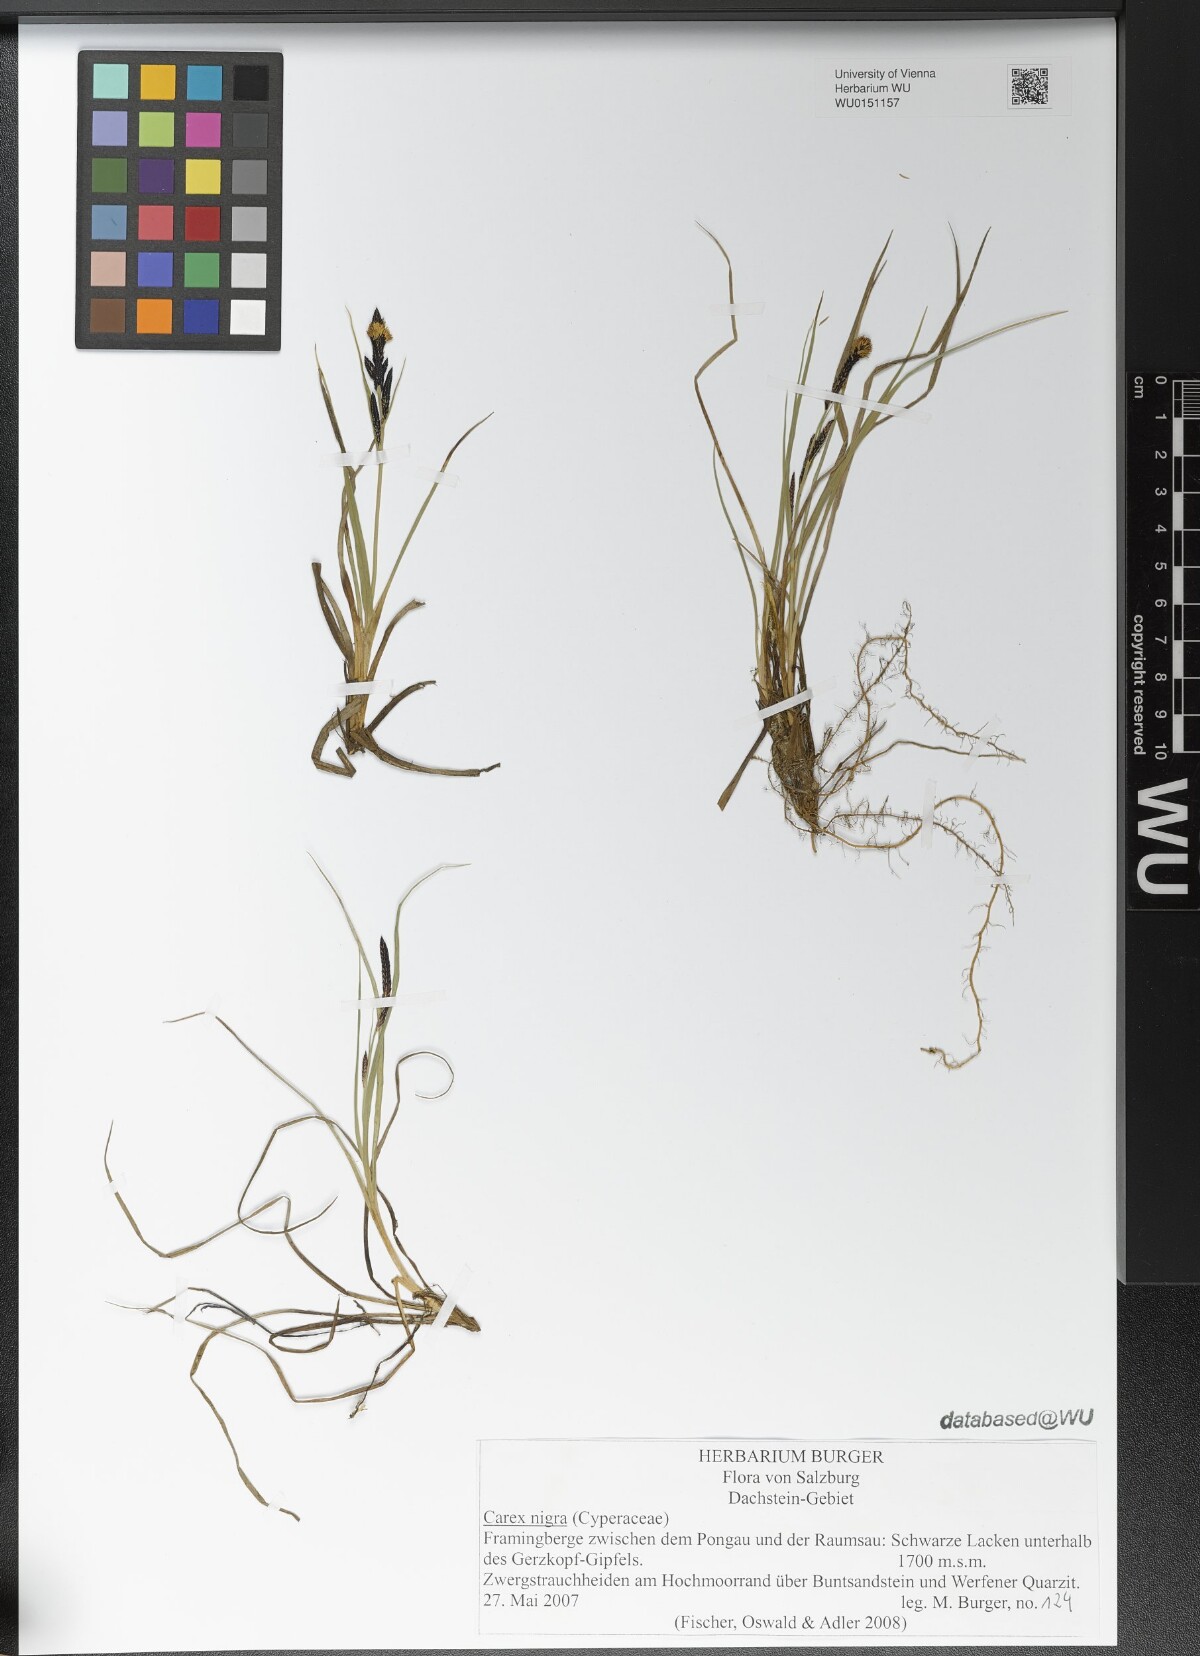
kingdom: Plantae
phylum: Tracheophyta
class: Liliopsida
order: Poales
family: Cyperaceae
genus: Carex
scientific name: Carex nigra
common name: Common sedge
